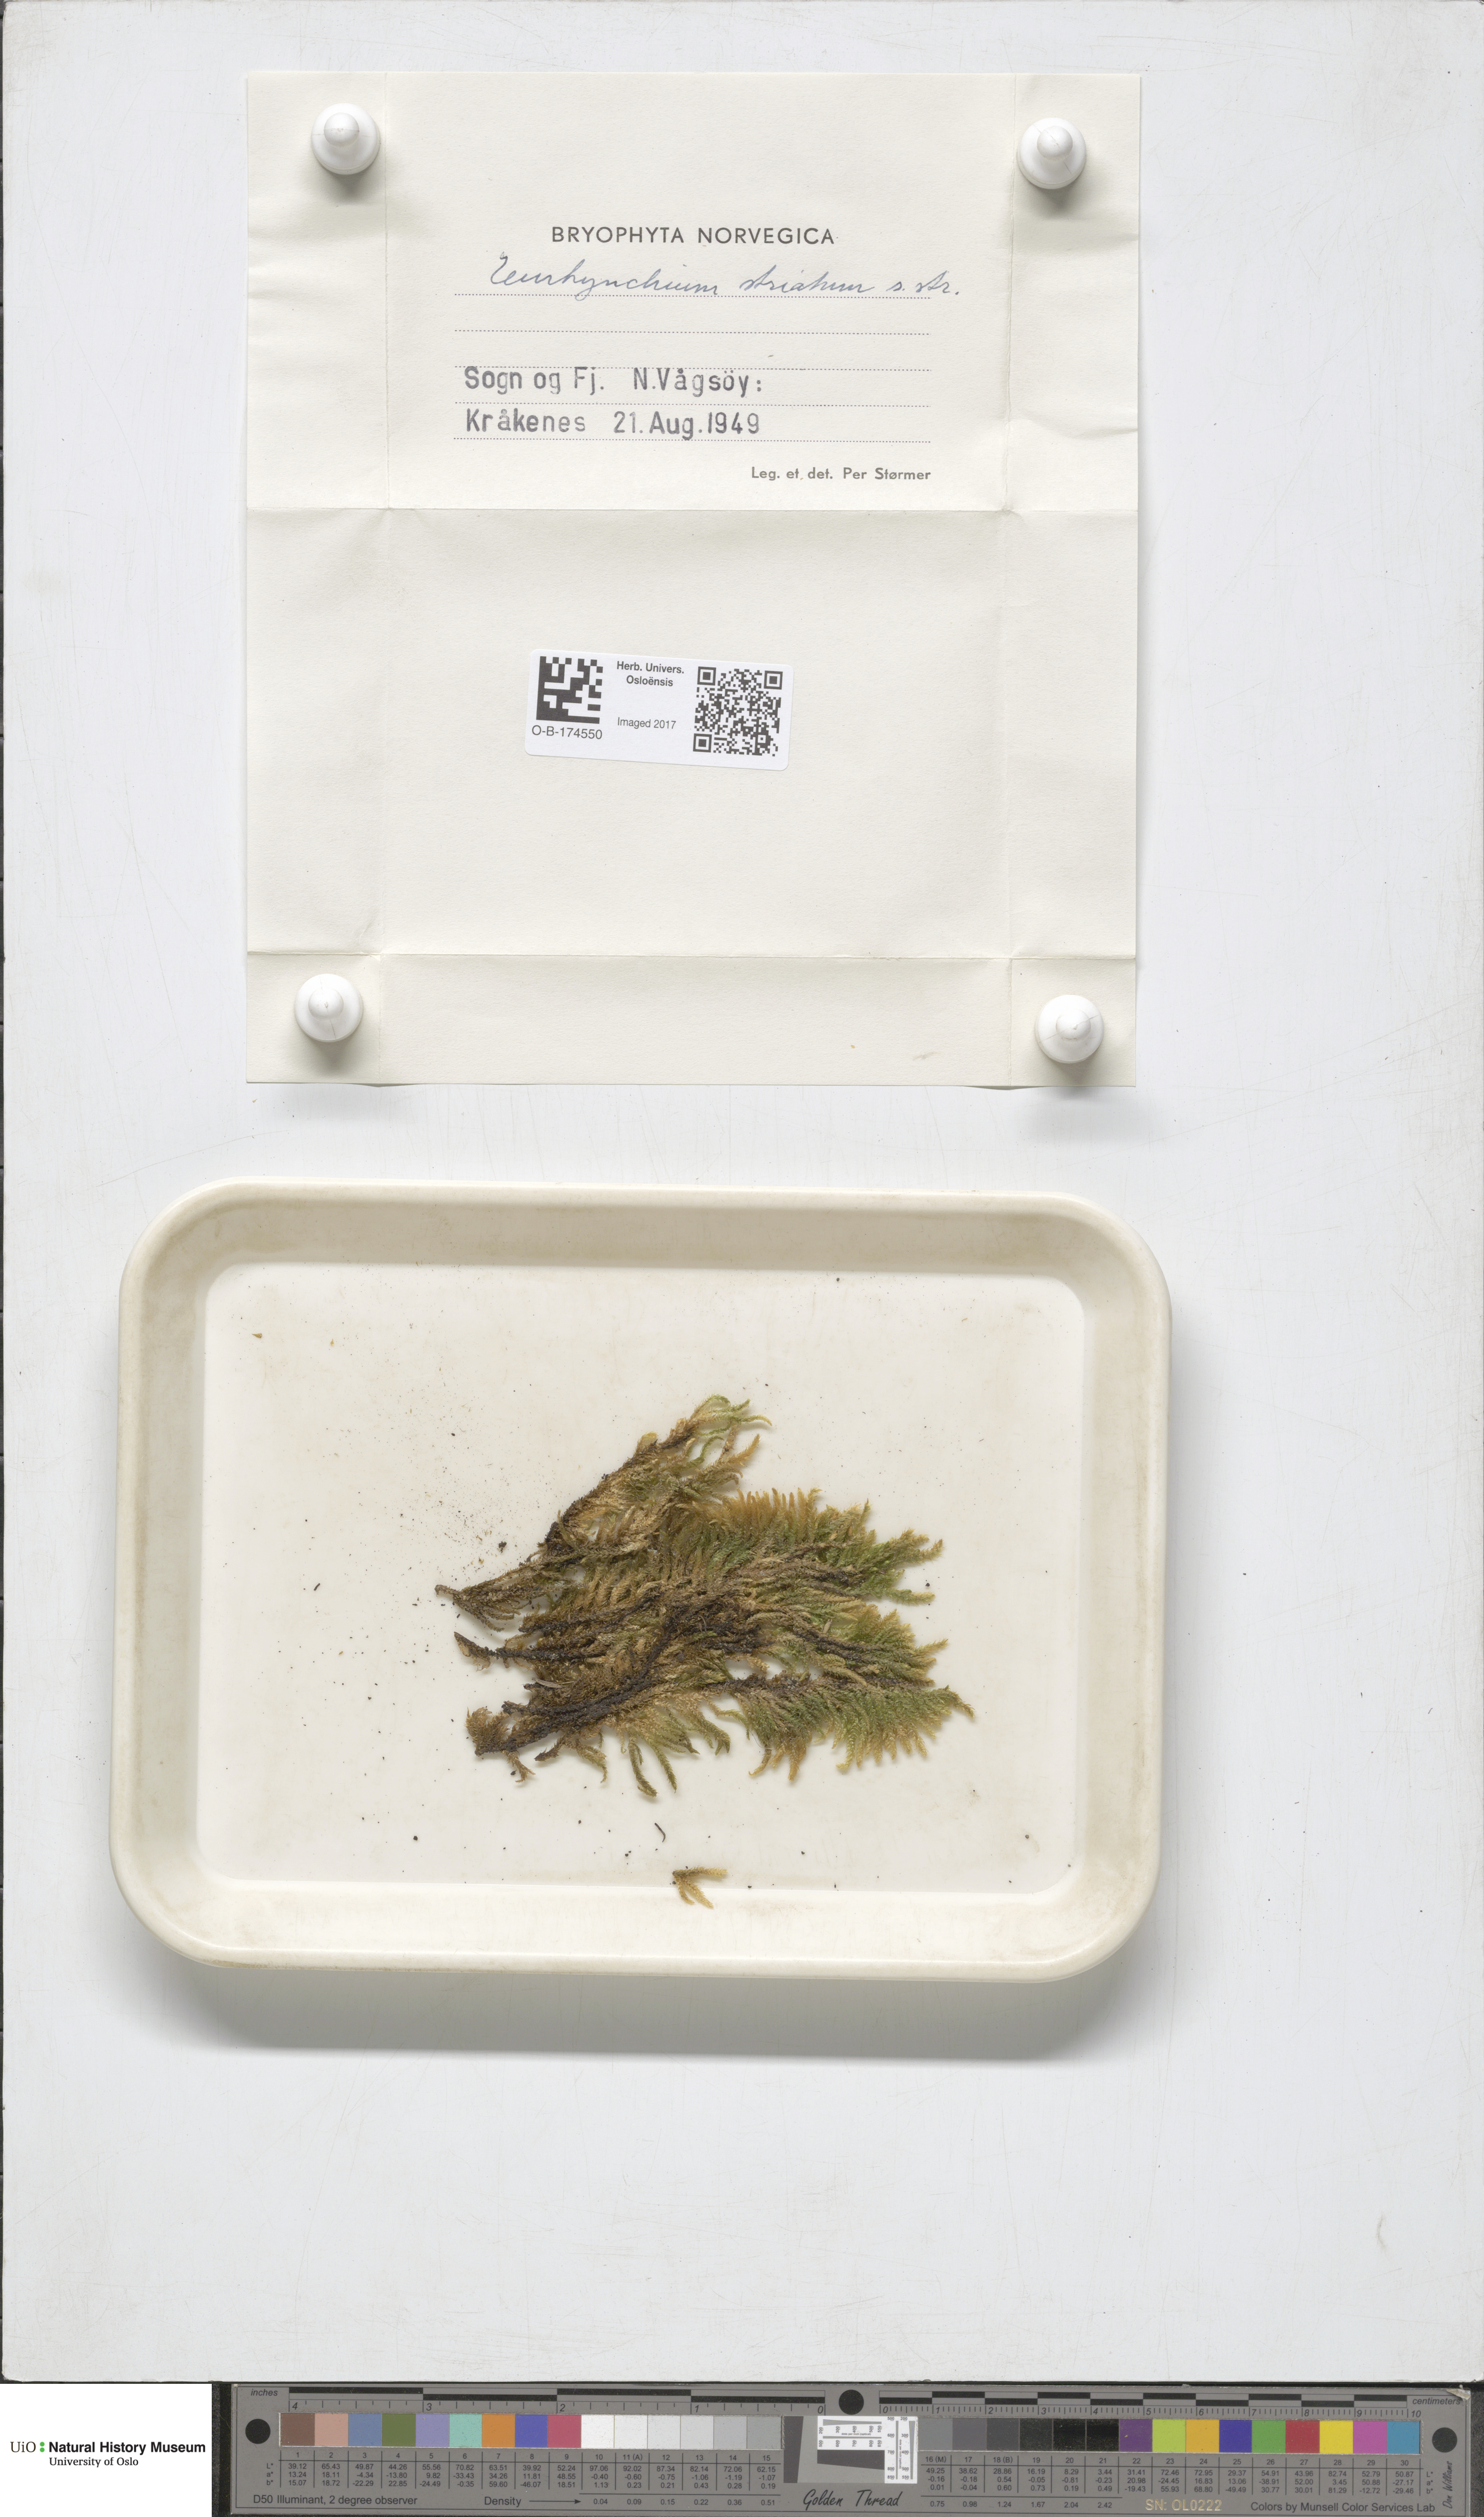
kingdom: Plantae
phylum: Bryophyta
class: Bryopsida
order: Hypnales
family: Brachytheciaceae
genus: Eurhynchium
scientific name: Eurhynchium striatum
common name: Common striated feather-moss
